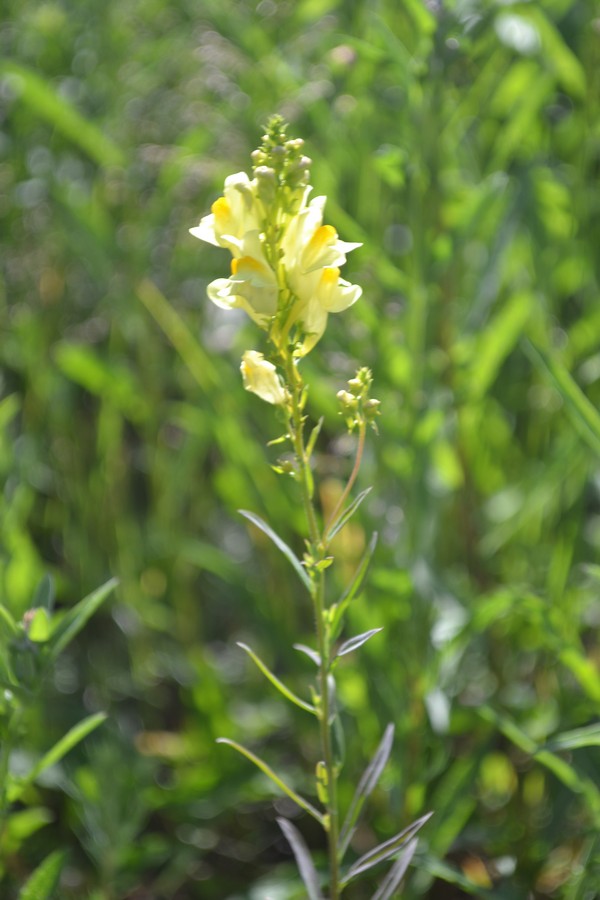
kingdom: Plantae
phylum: Tracheophyta
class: Magnoliopsida
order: Lamiales
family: Plantaginaceae
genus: Linaria
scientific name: Linaria vulgaris
